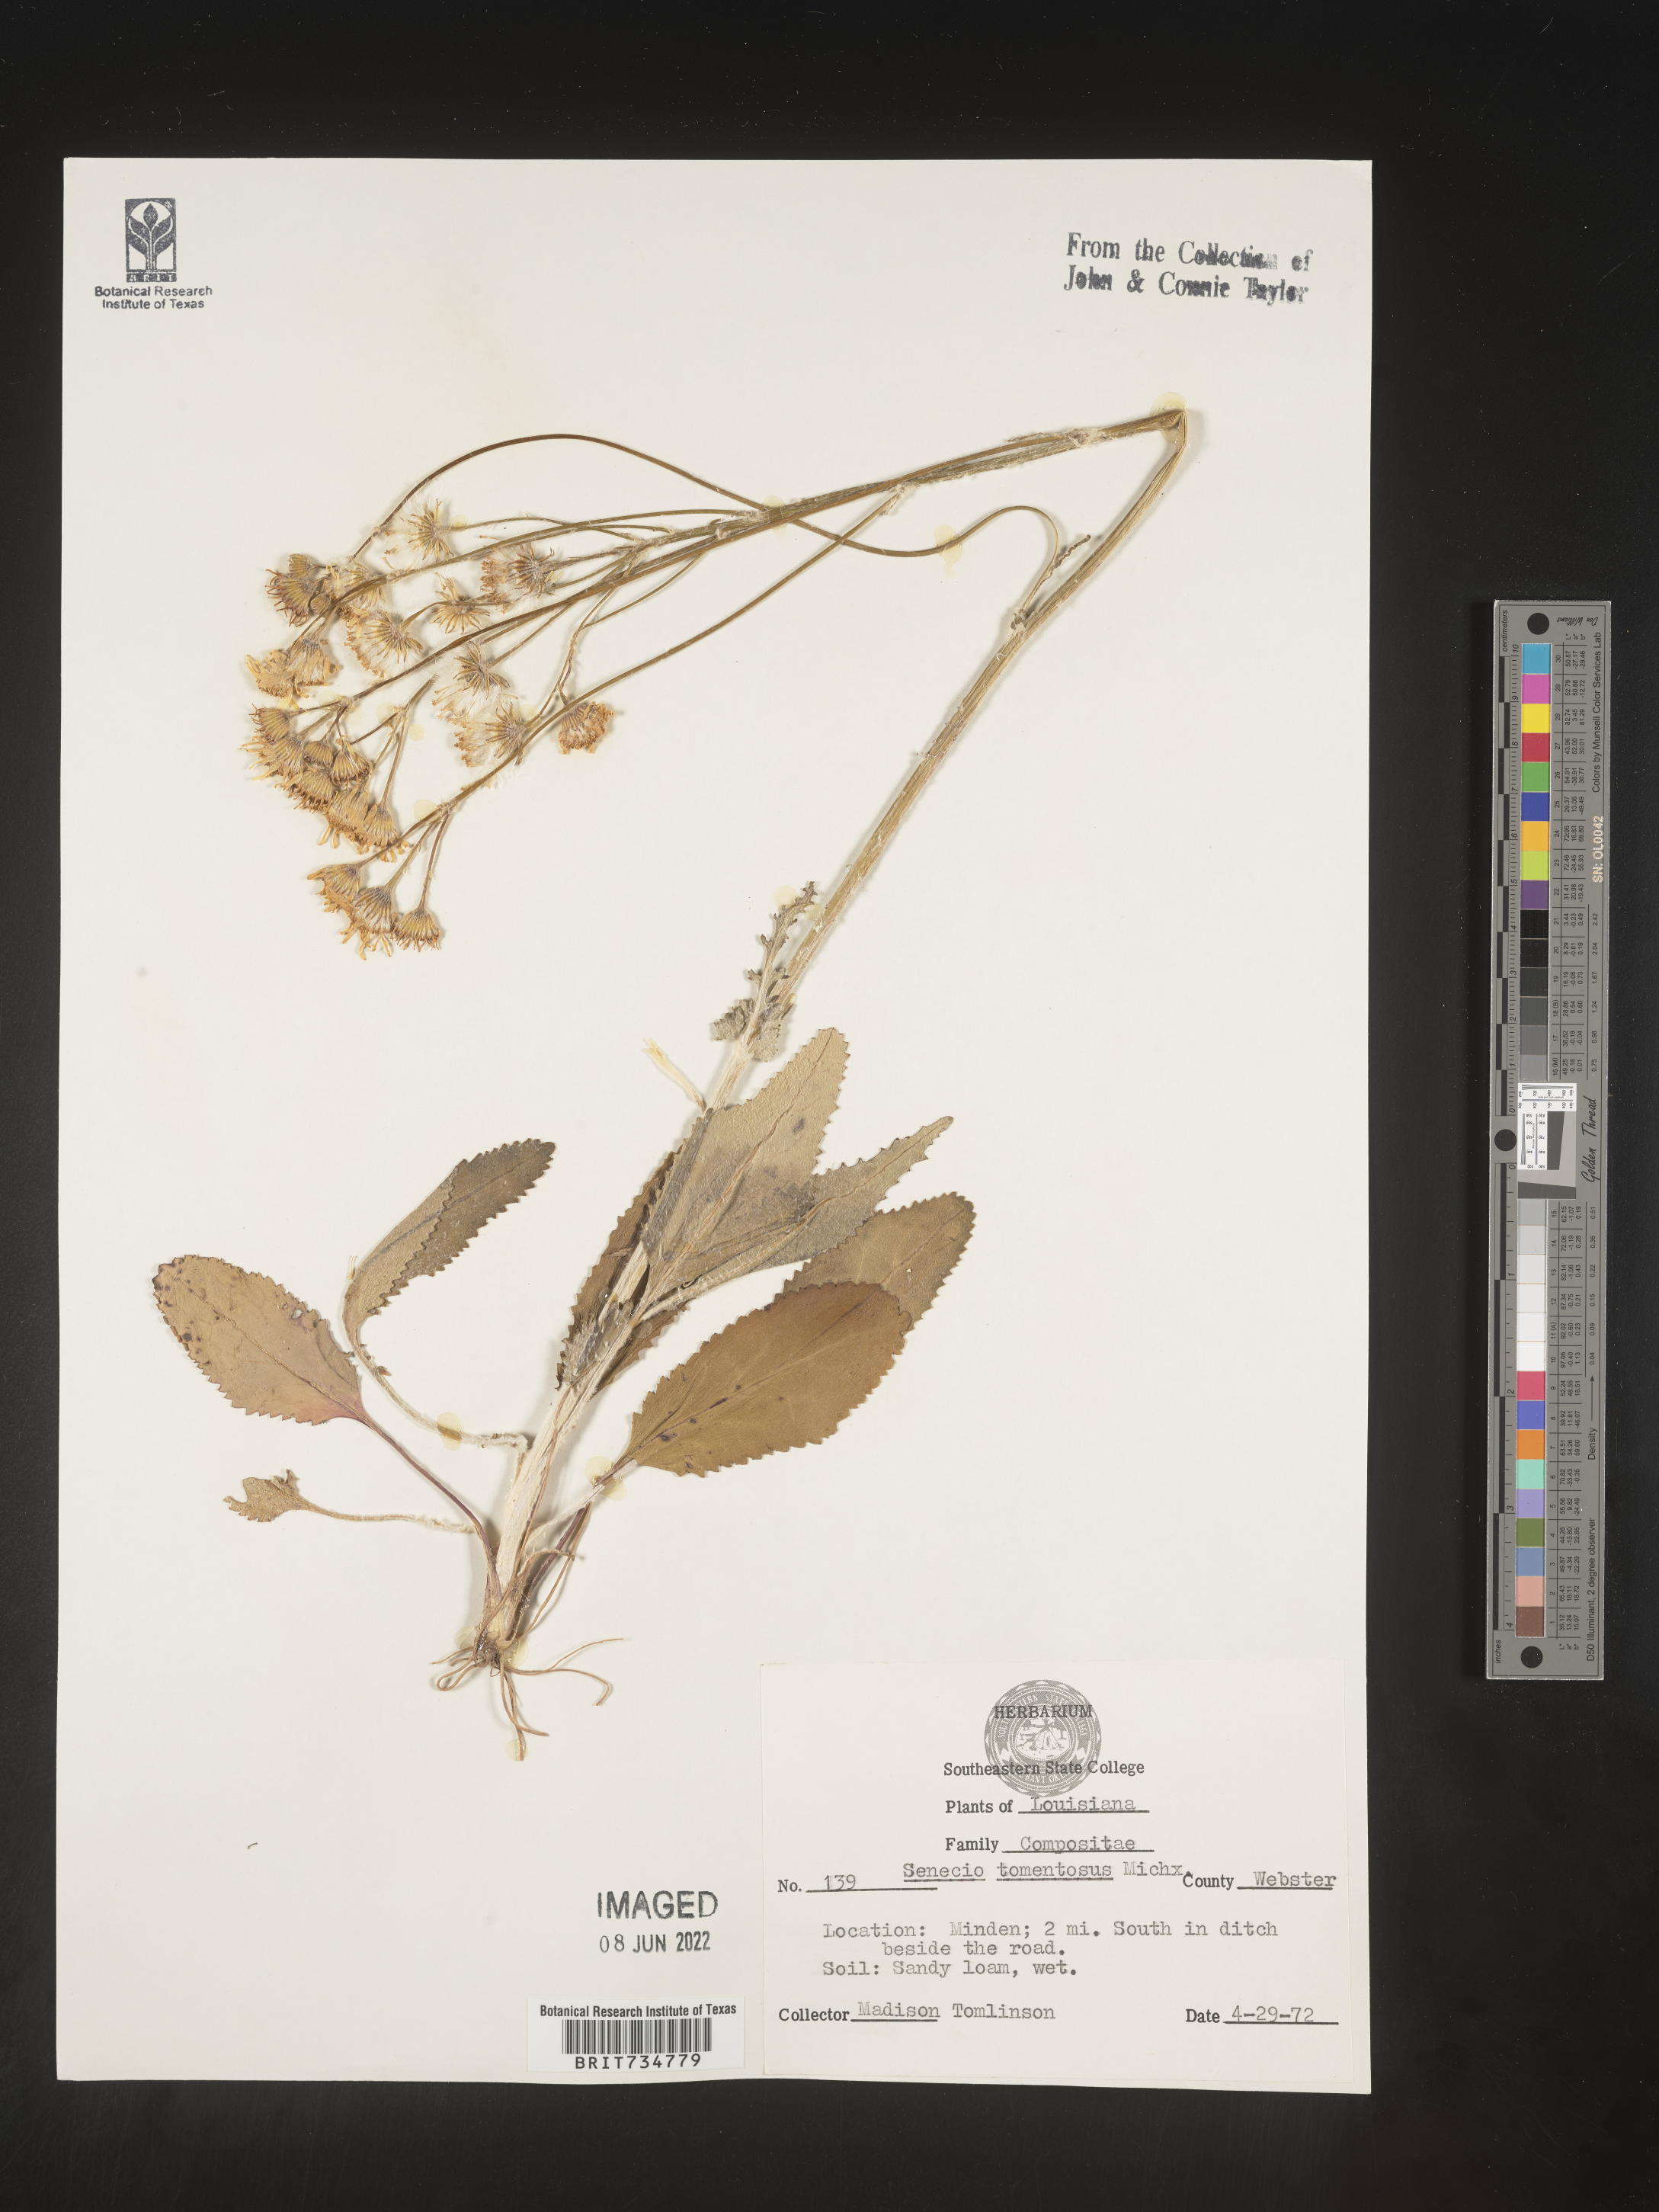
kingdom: Plantae
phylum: Tracheophyta
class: Magnoliopsida
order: Asterales
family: Asteraceae
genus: Packera
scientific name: Packera dubia
